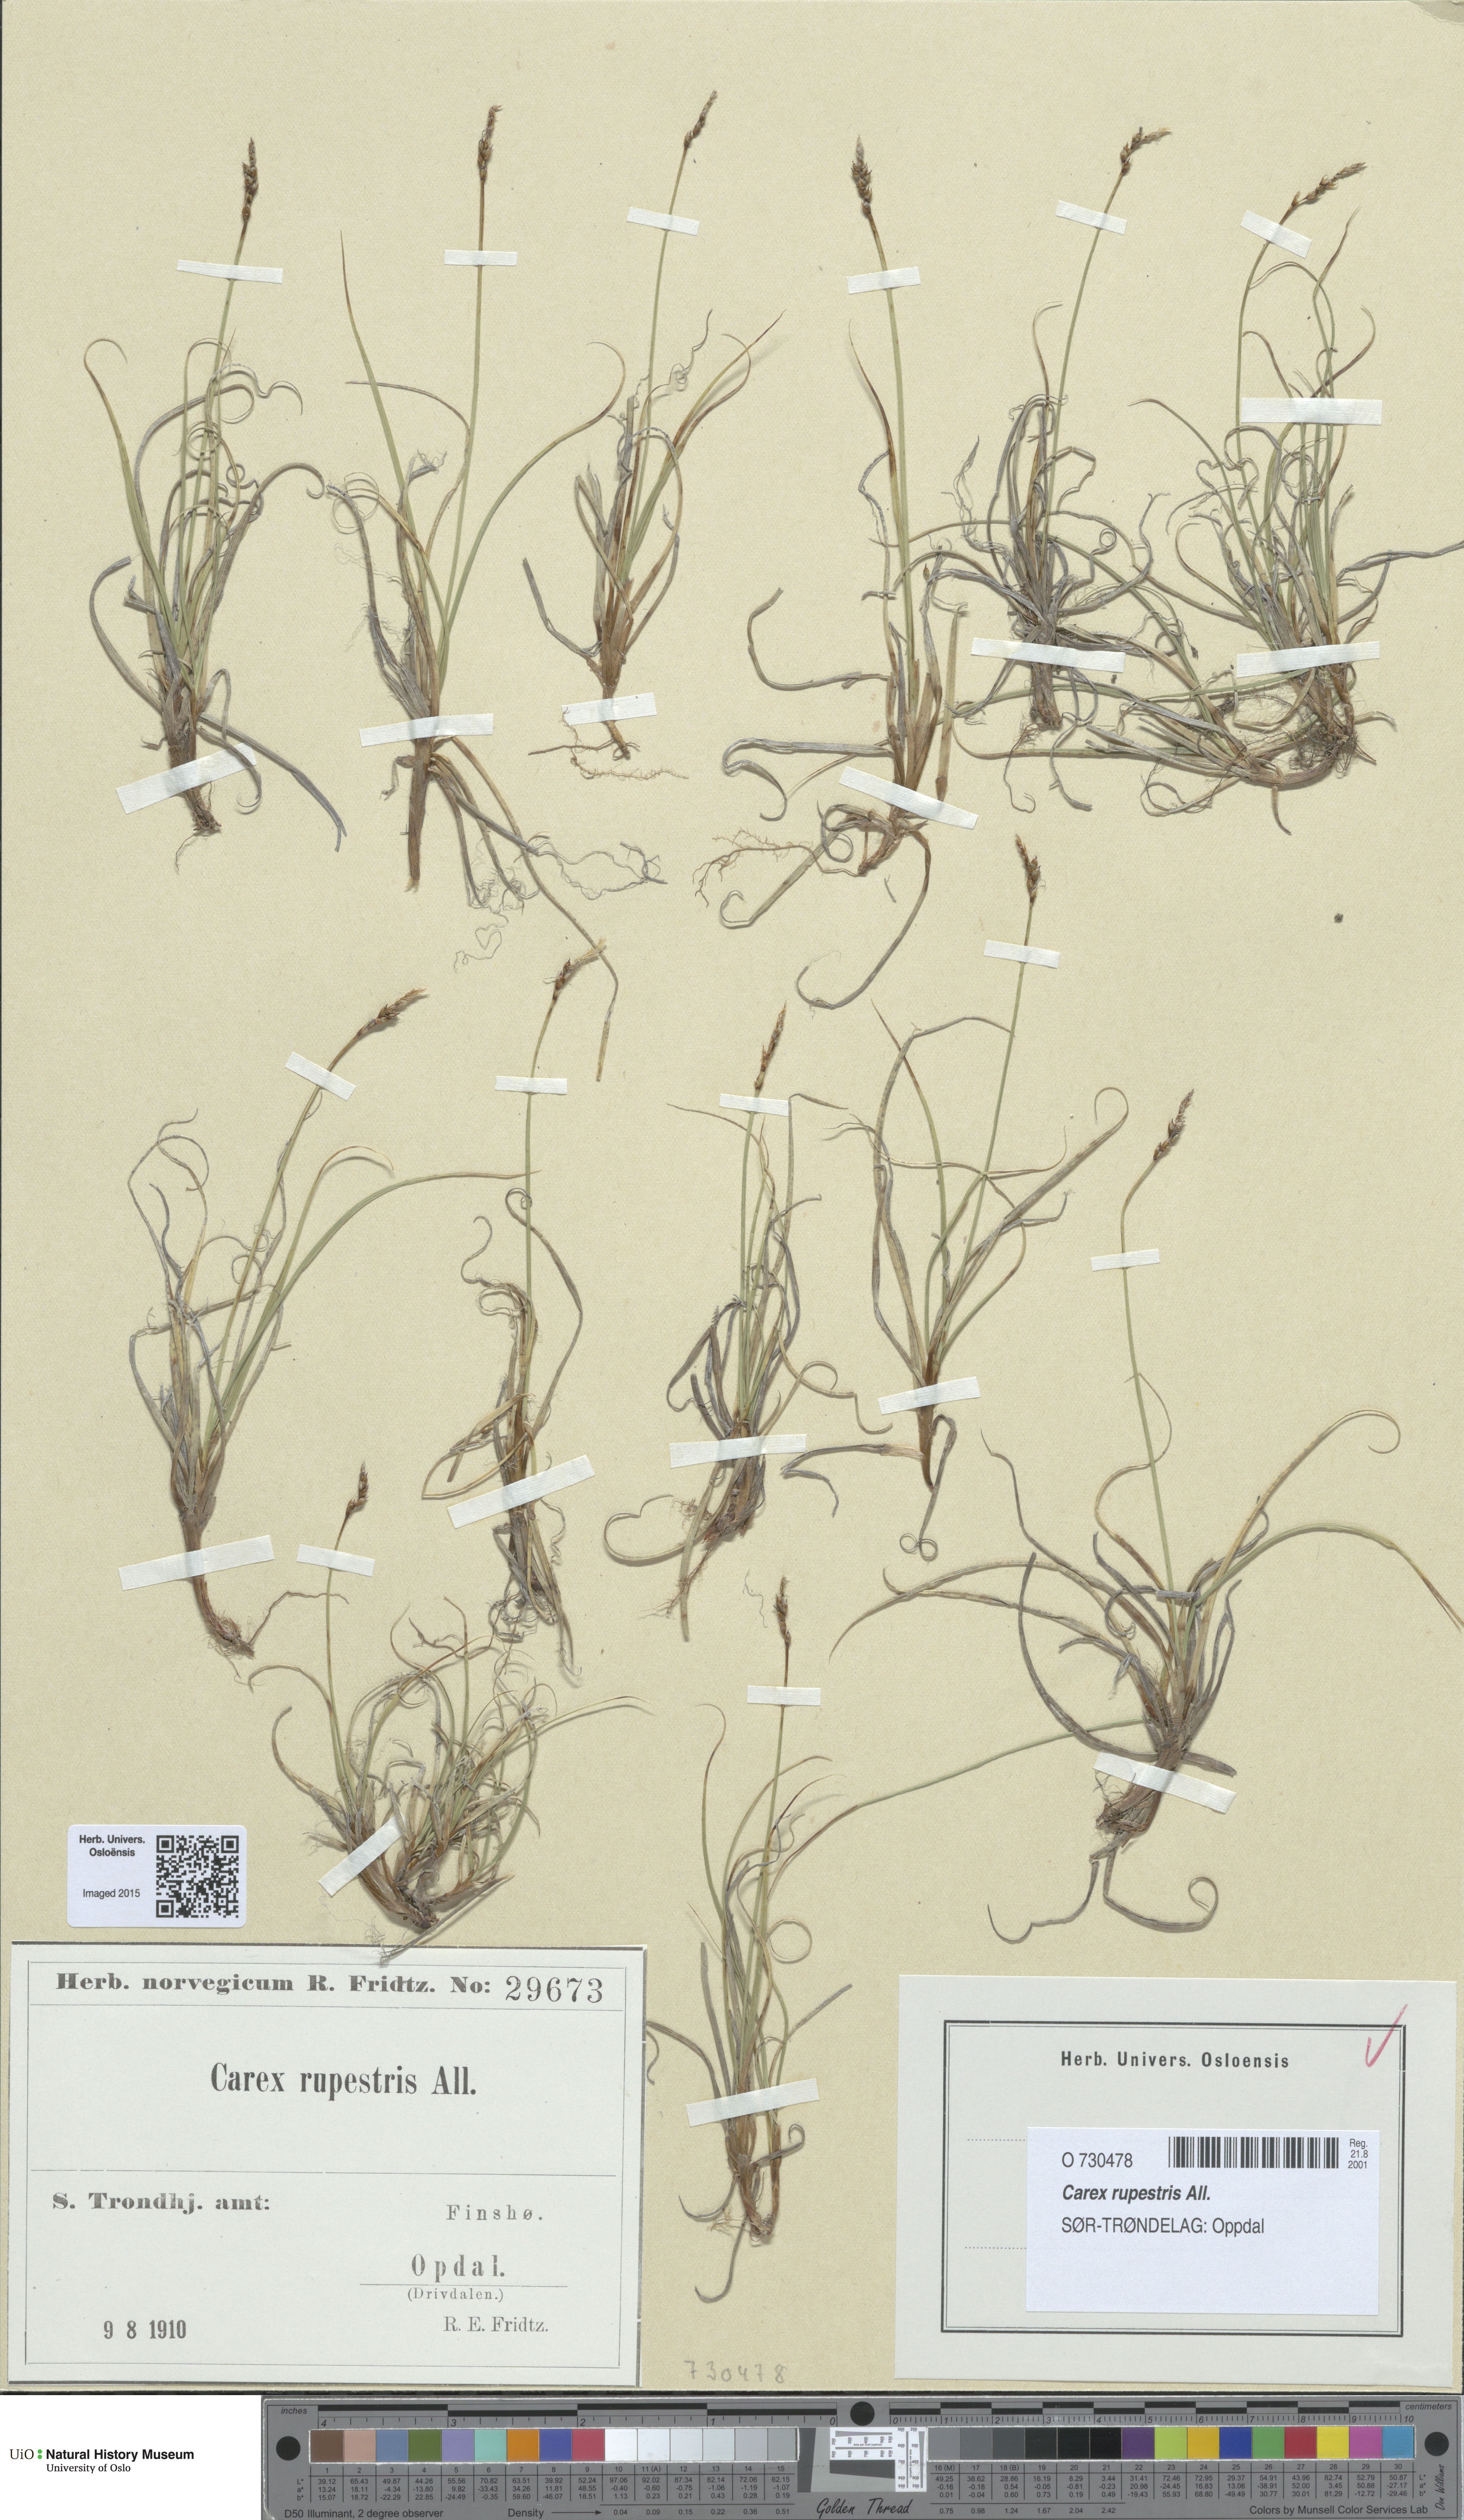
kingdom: Plantae
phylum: Tracheophyta
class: Liliopsida
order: Poales
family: Cyperaceae
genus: Carex
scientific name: Carex rupestris
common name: Rock sedge
